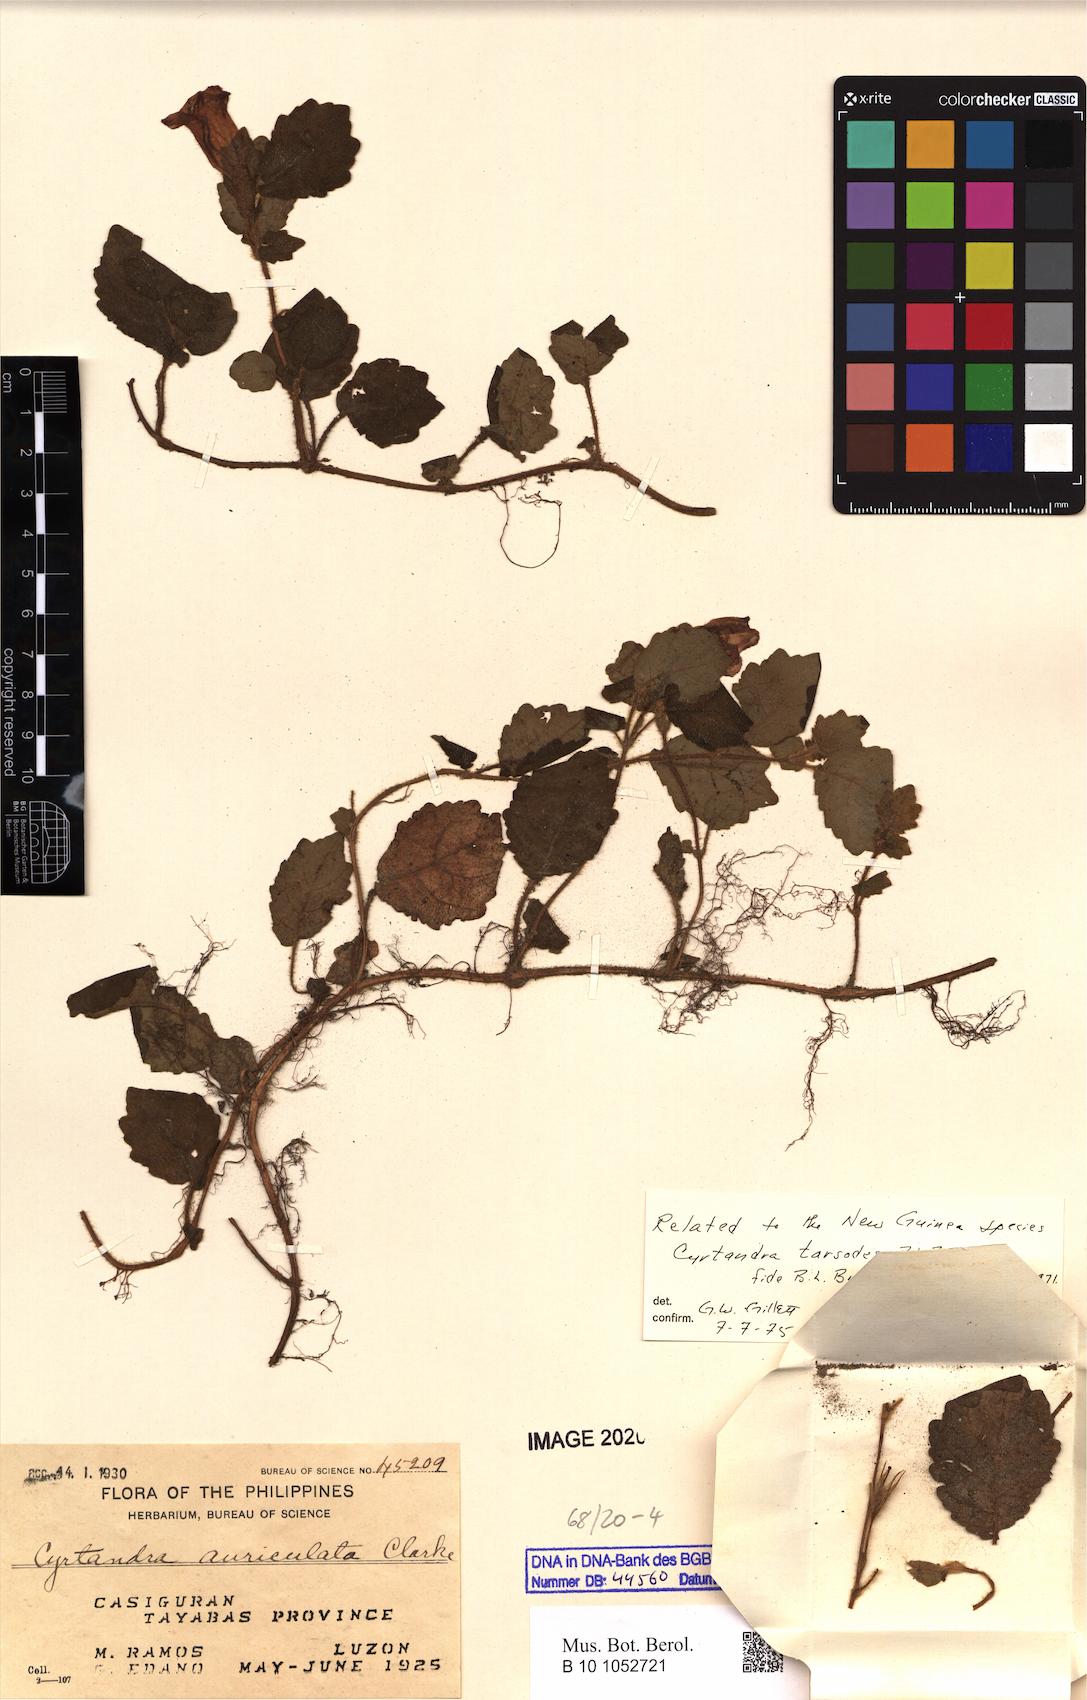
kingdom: Plantae
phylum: Tracheophyta
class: Magnoliopsida
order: Lamiales
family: Gesneriaceae
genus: Cyrtandra
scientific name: Cyrtandra auriculata
